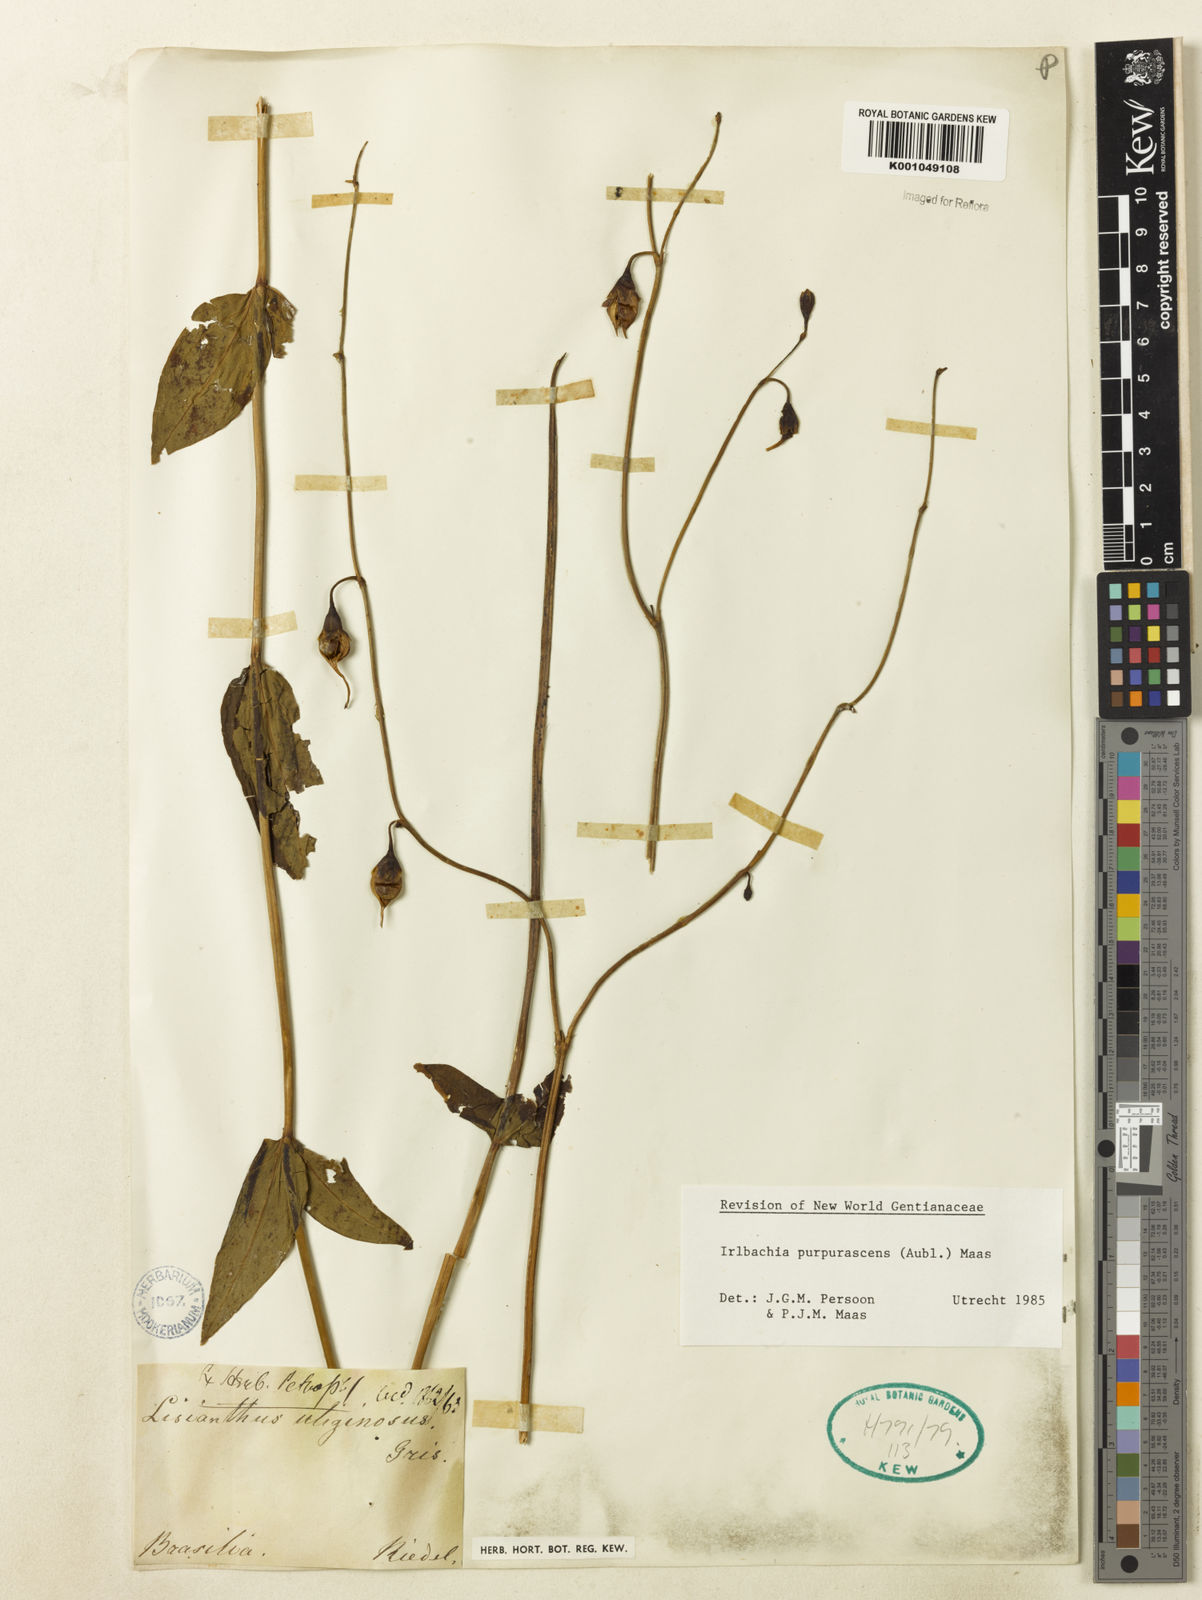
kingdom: Plantae
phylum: Tracheophyta
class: Magnoliopsida
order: Gentianales
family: Gentianaceae
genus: Chelonanthus
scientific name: Chelonanthus purpurascens
